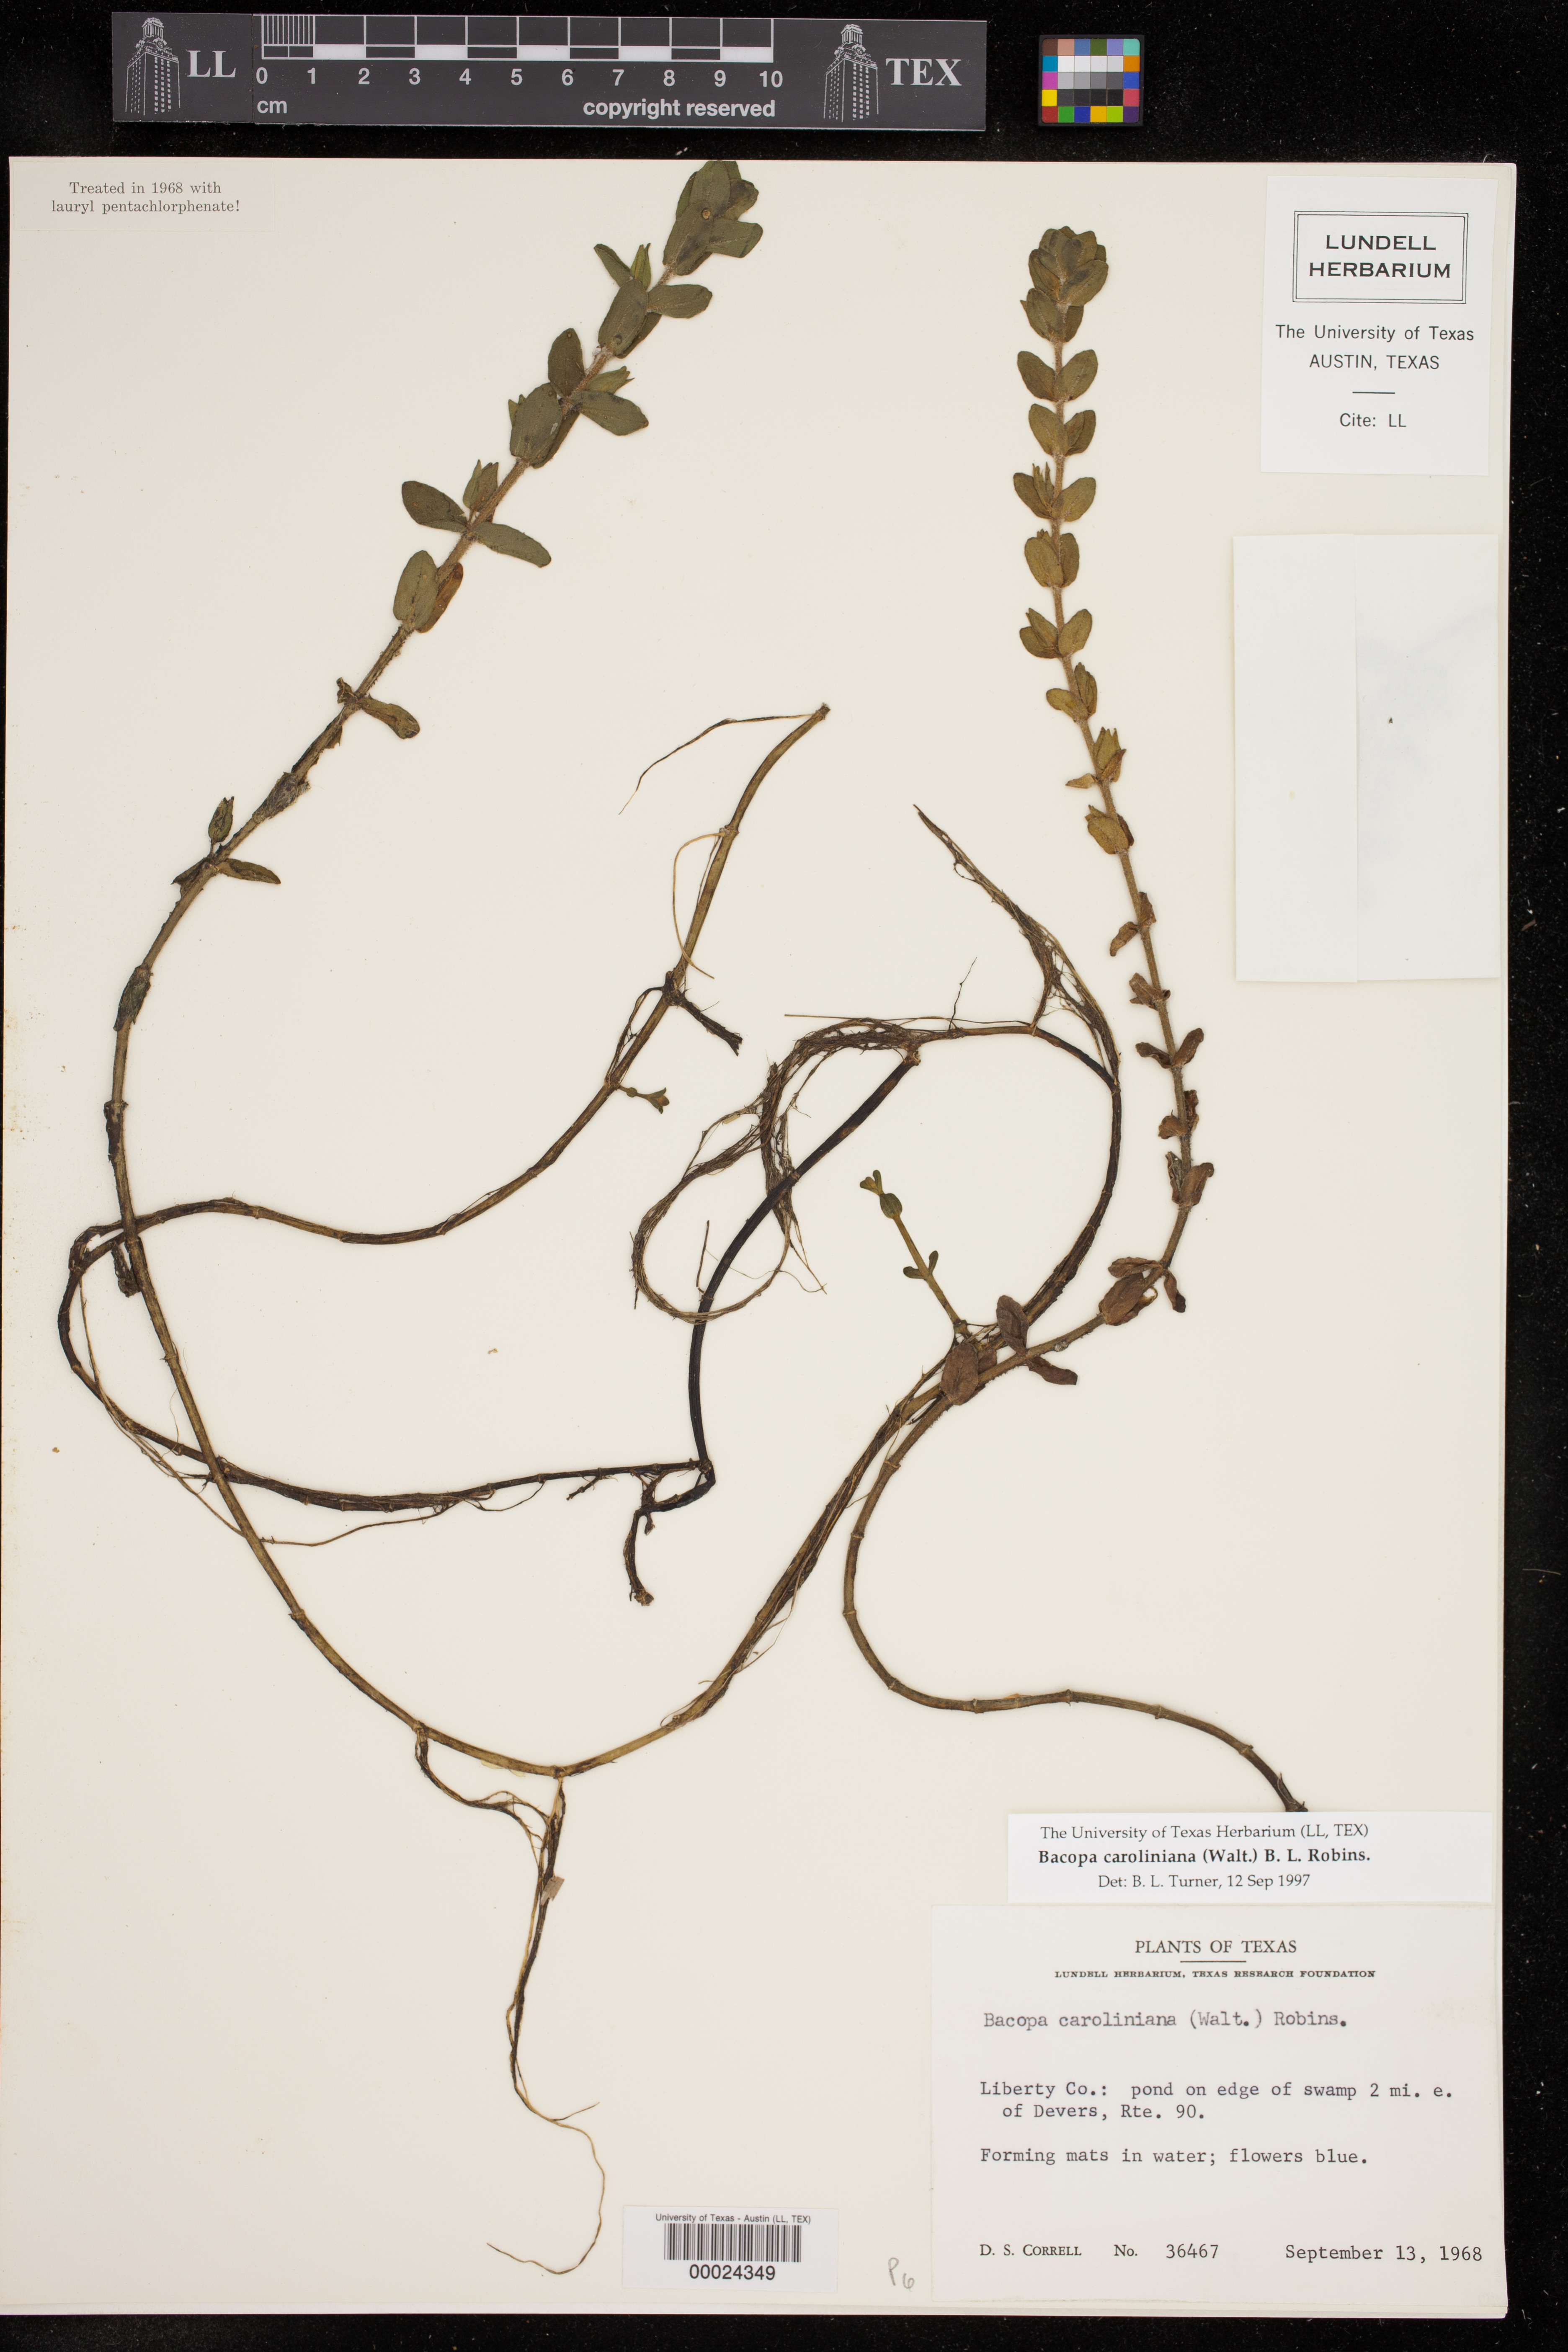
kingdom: Plantae
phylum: Tracheophyta
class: Magnoliopsida
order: Lamiales
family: Plantaginaceae
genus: Bacopa
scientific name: Bacopa caroliniana
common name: Lemon bacopa
